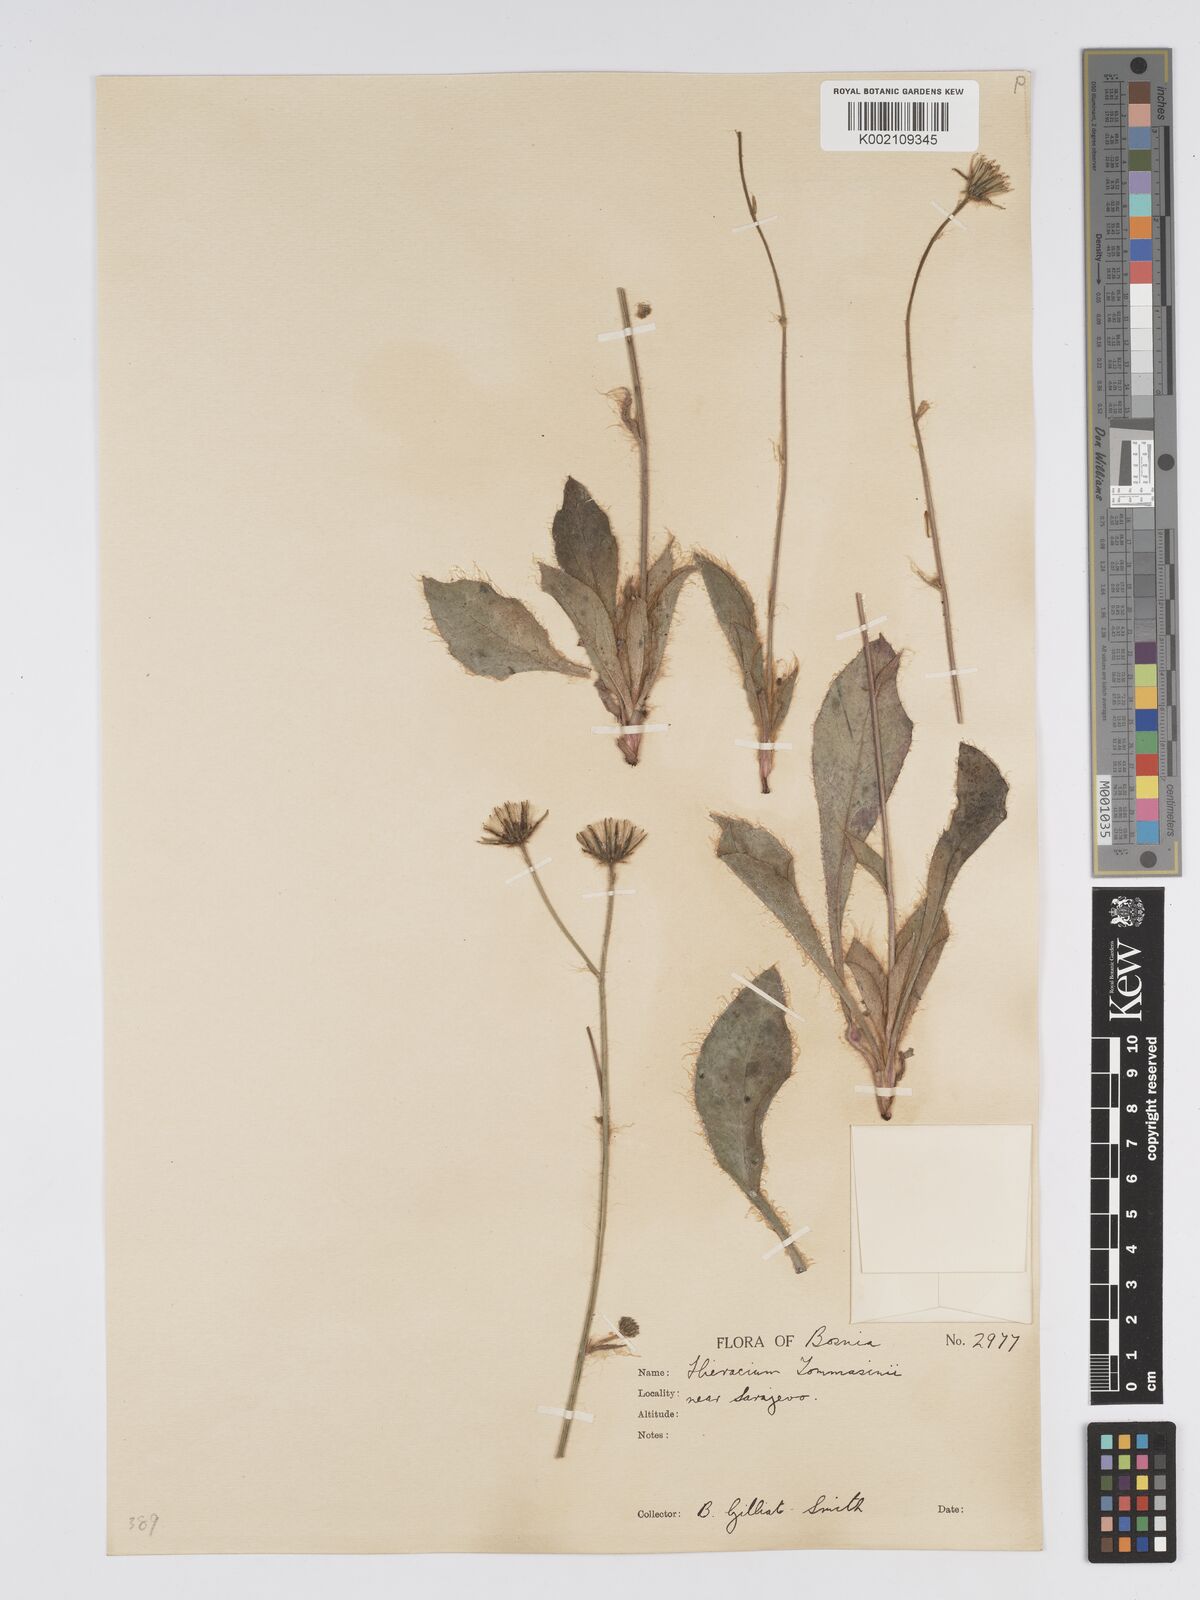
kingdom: Plantae
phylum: Tracheophyta
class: Magnoliopsida
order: Asterales
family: Asteraceae
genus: Hieracium
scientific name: Hieracium tommasinianum
